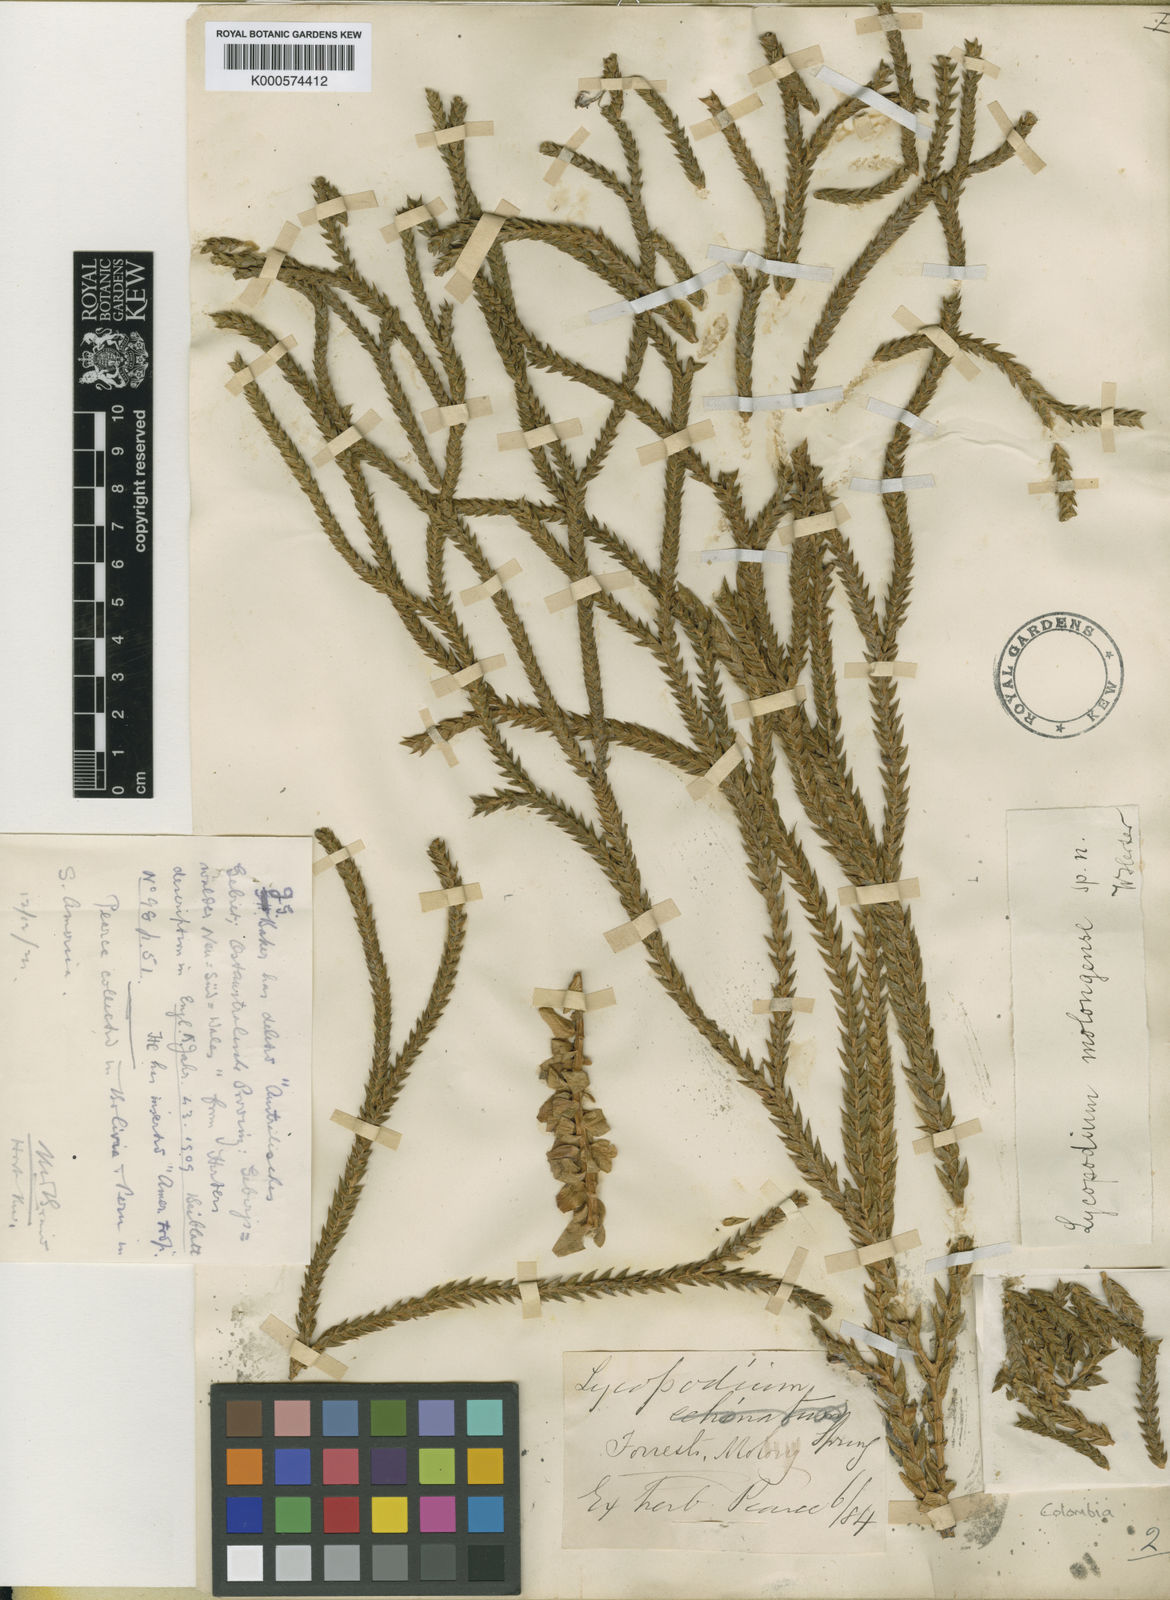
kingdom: Plantae
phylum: Tracheophyta
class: Lycopodiopsida
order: Lycopodiales
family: Lycopodiaceae
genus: Phlegmariurus
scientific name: Phlegmariurus echinatus
